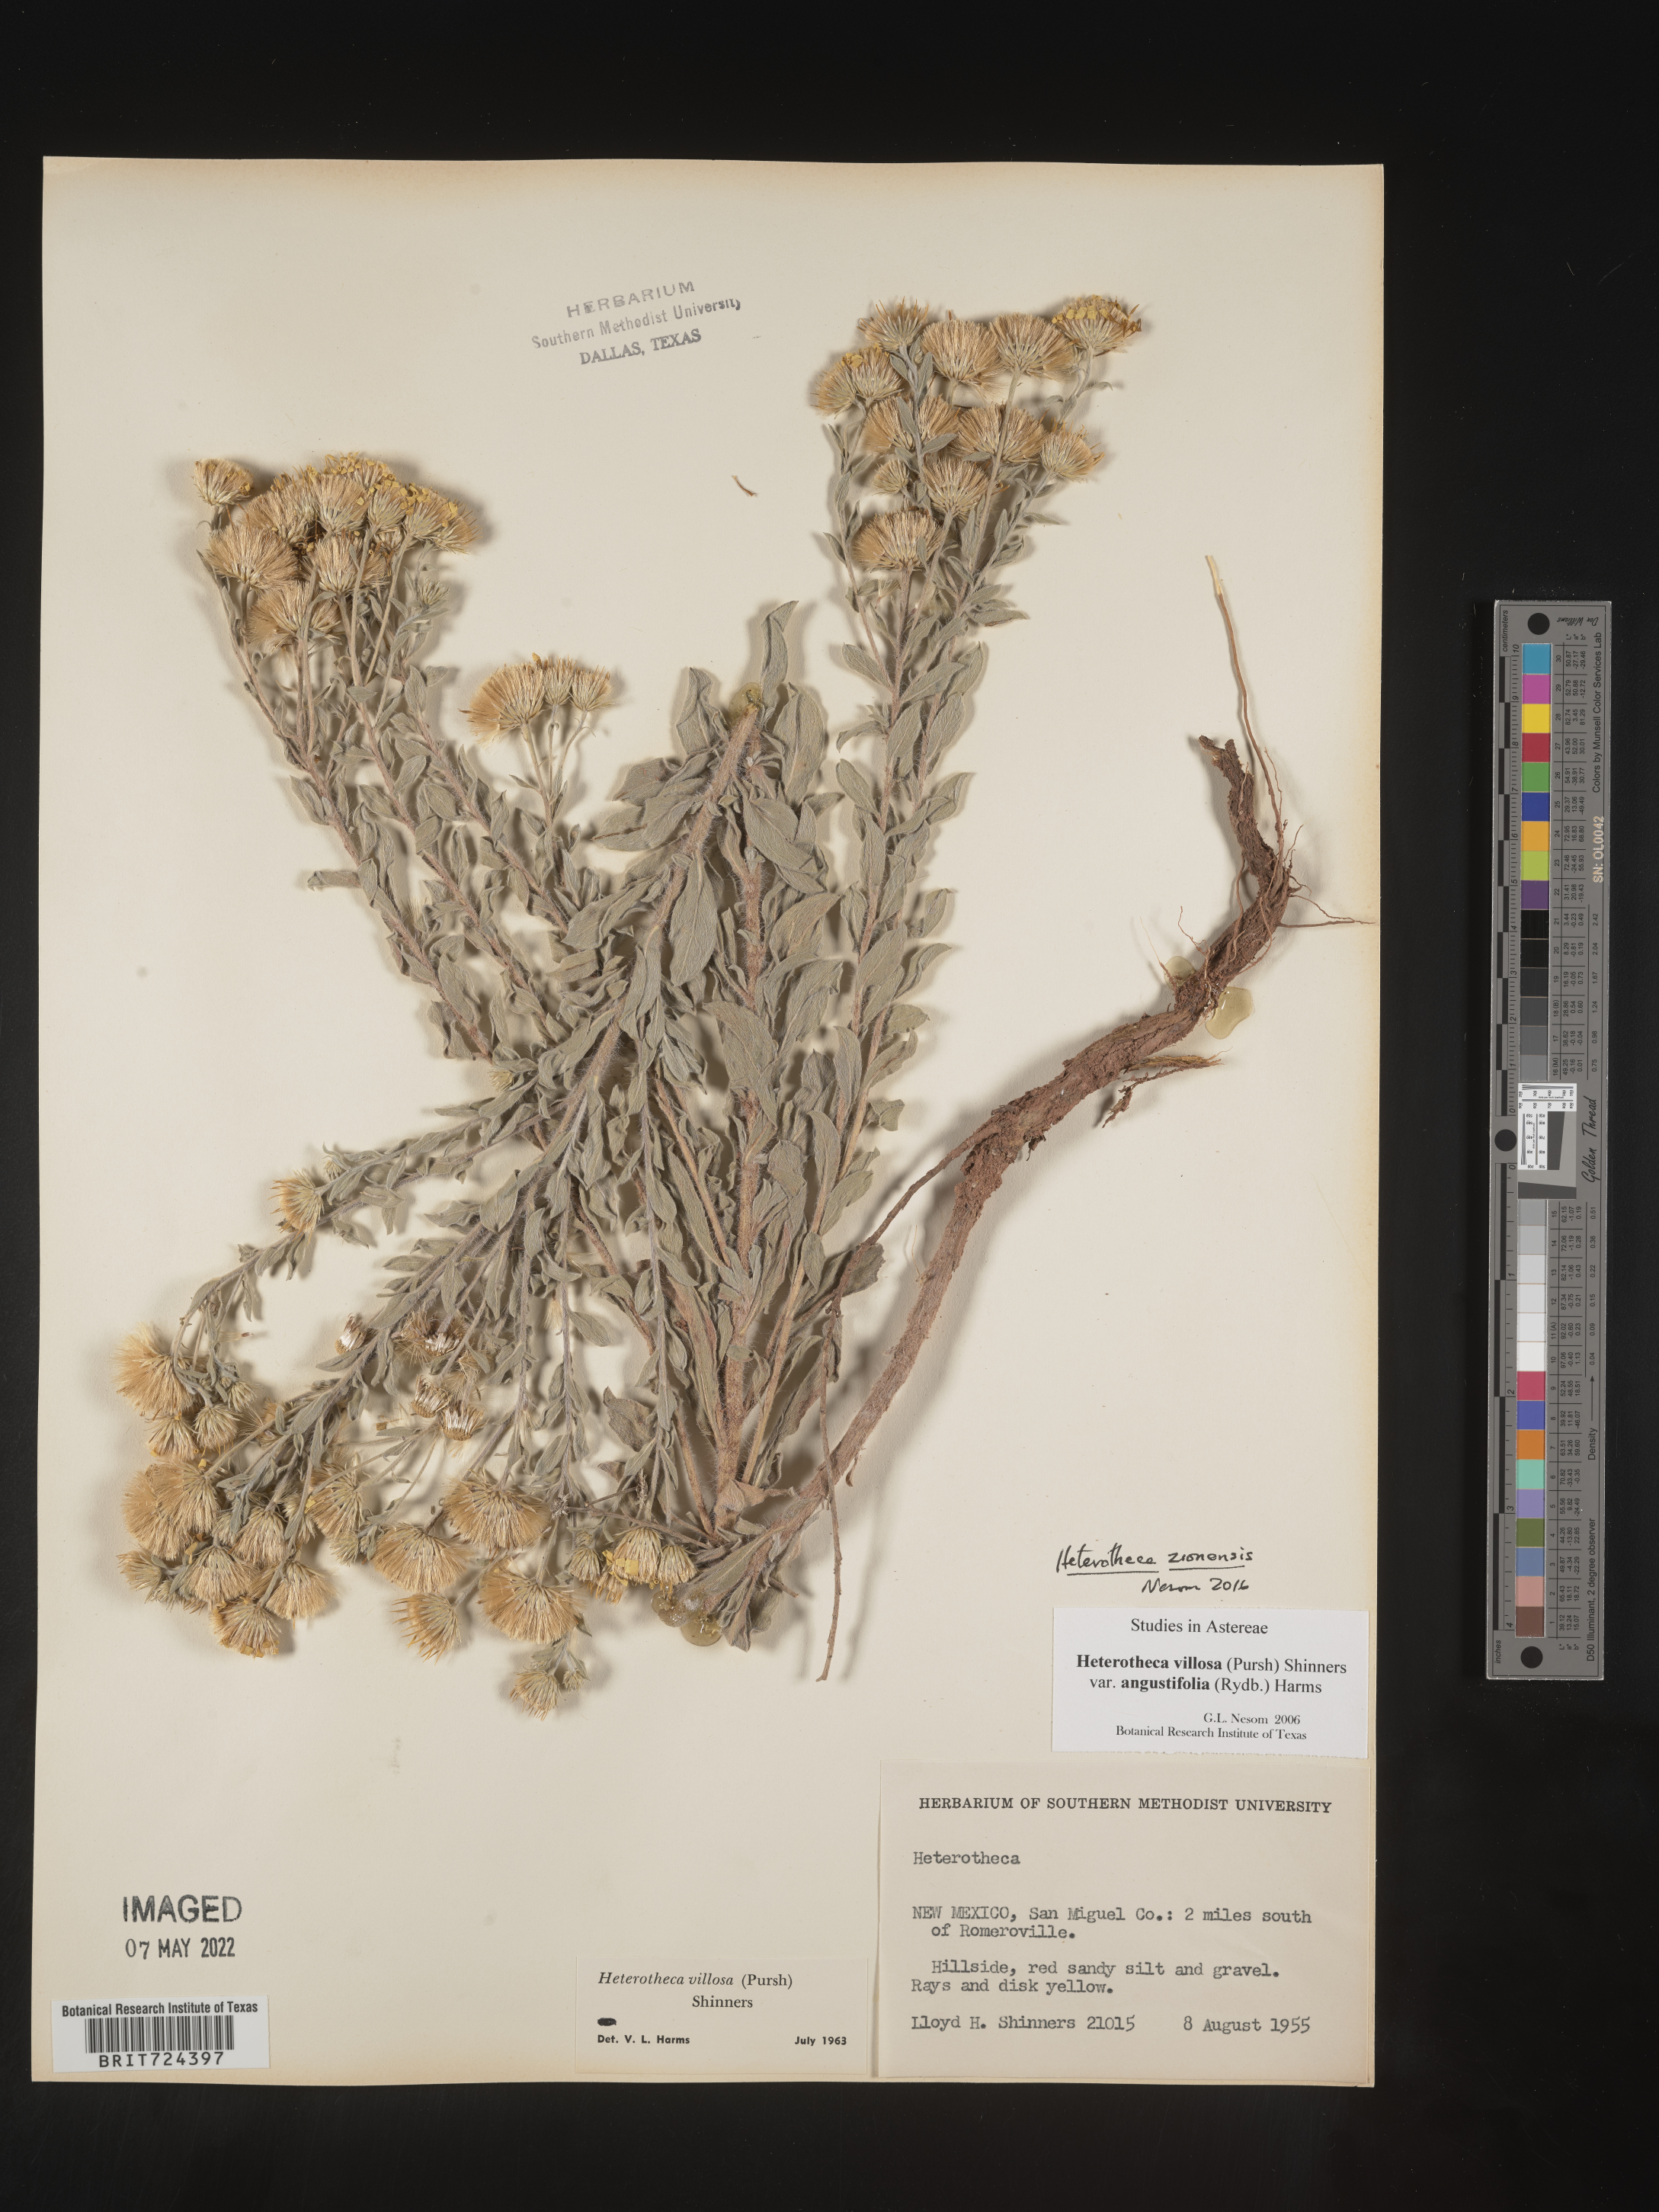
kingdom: Plantae
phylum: Tracheophyta
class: Magnoliopsida
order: Asterales
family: Asteraceae
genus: Heterotheca
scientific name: Heterotheca zionensis
